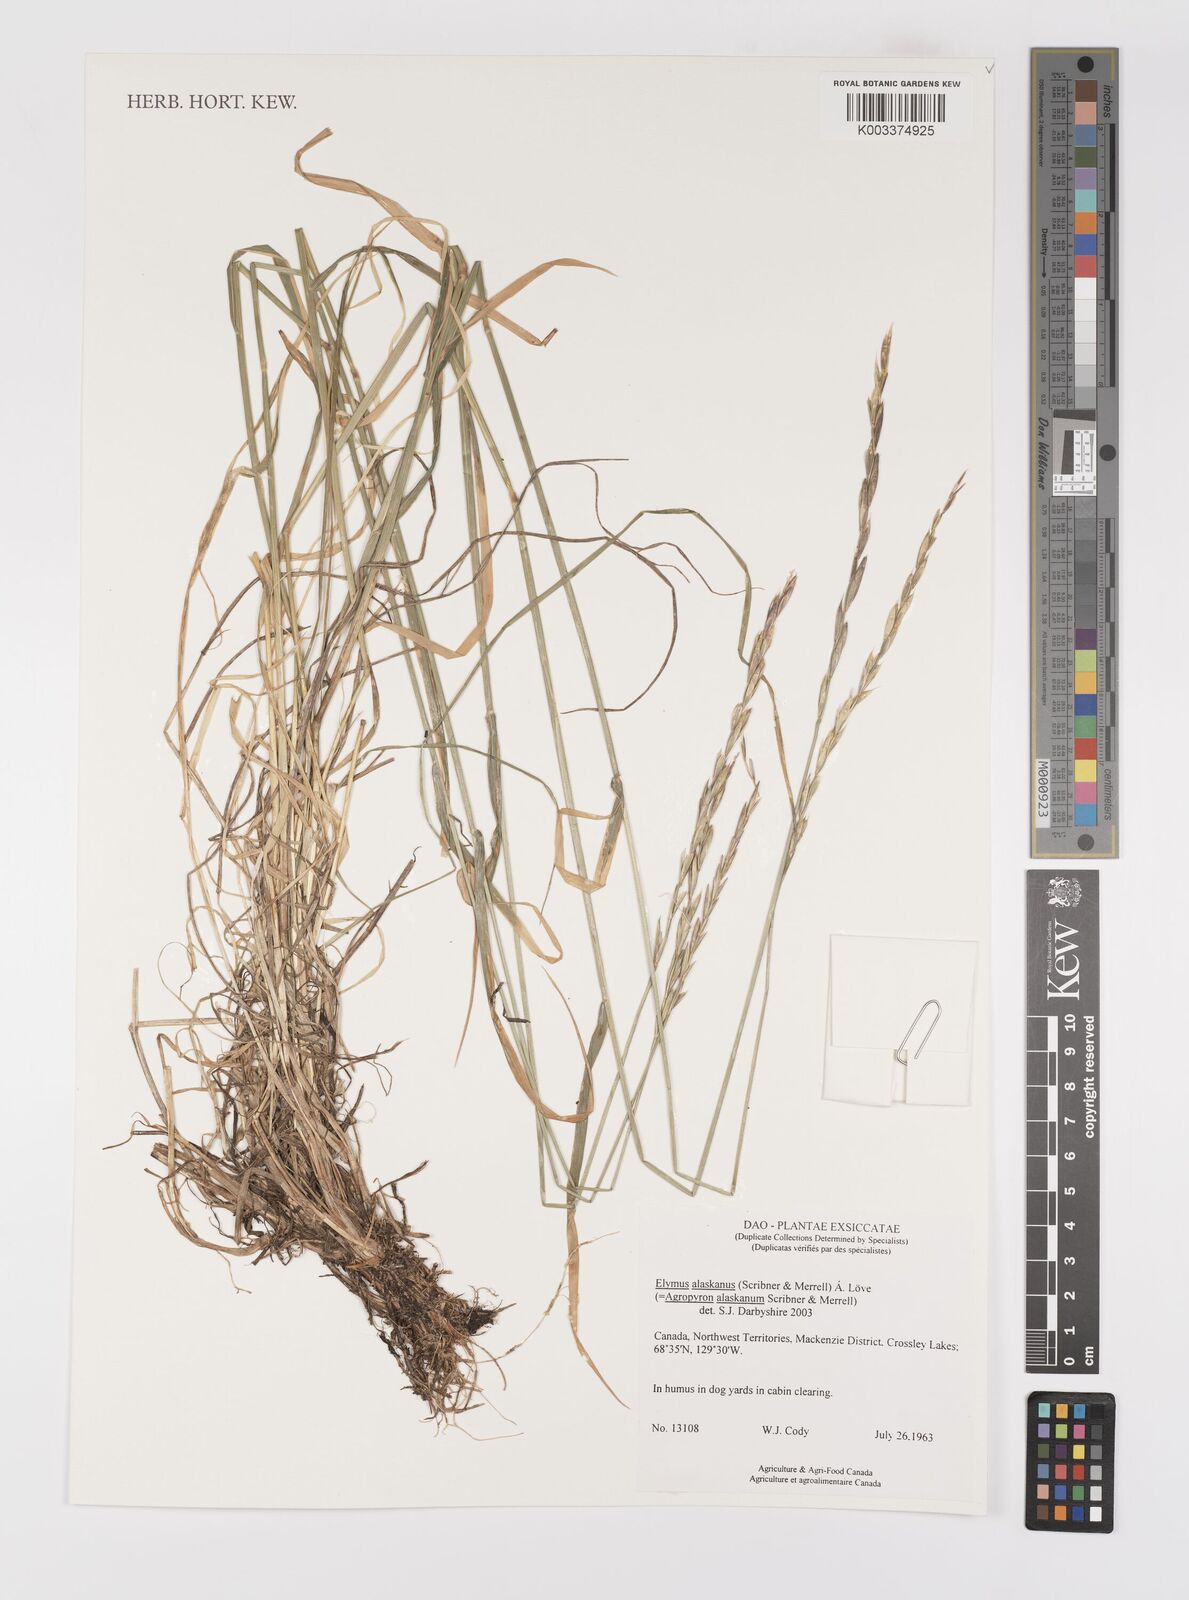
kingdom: Plantae
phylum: Tracheophyta
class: Liliopsida
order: Poales
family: Poaceae
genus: Elymus
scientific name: Elymus alaskanus
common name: Alaska wheatgrass
